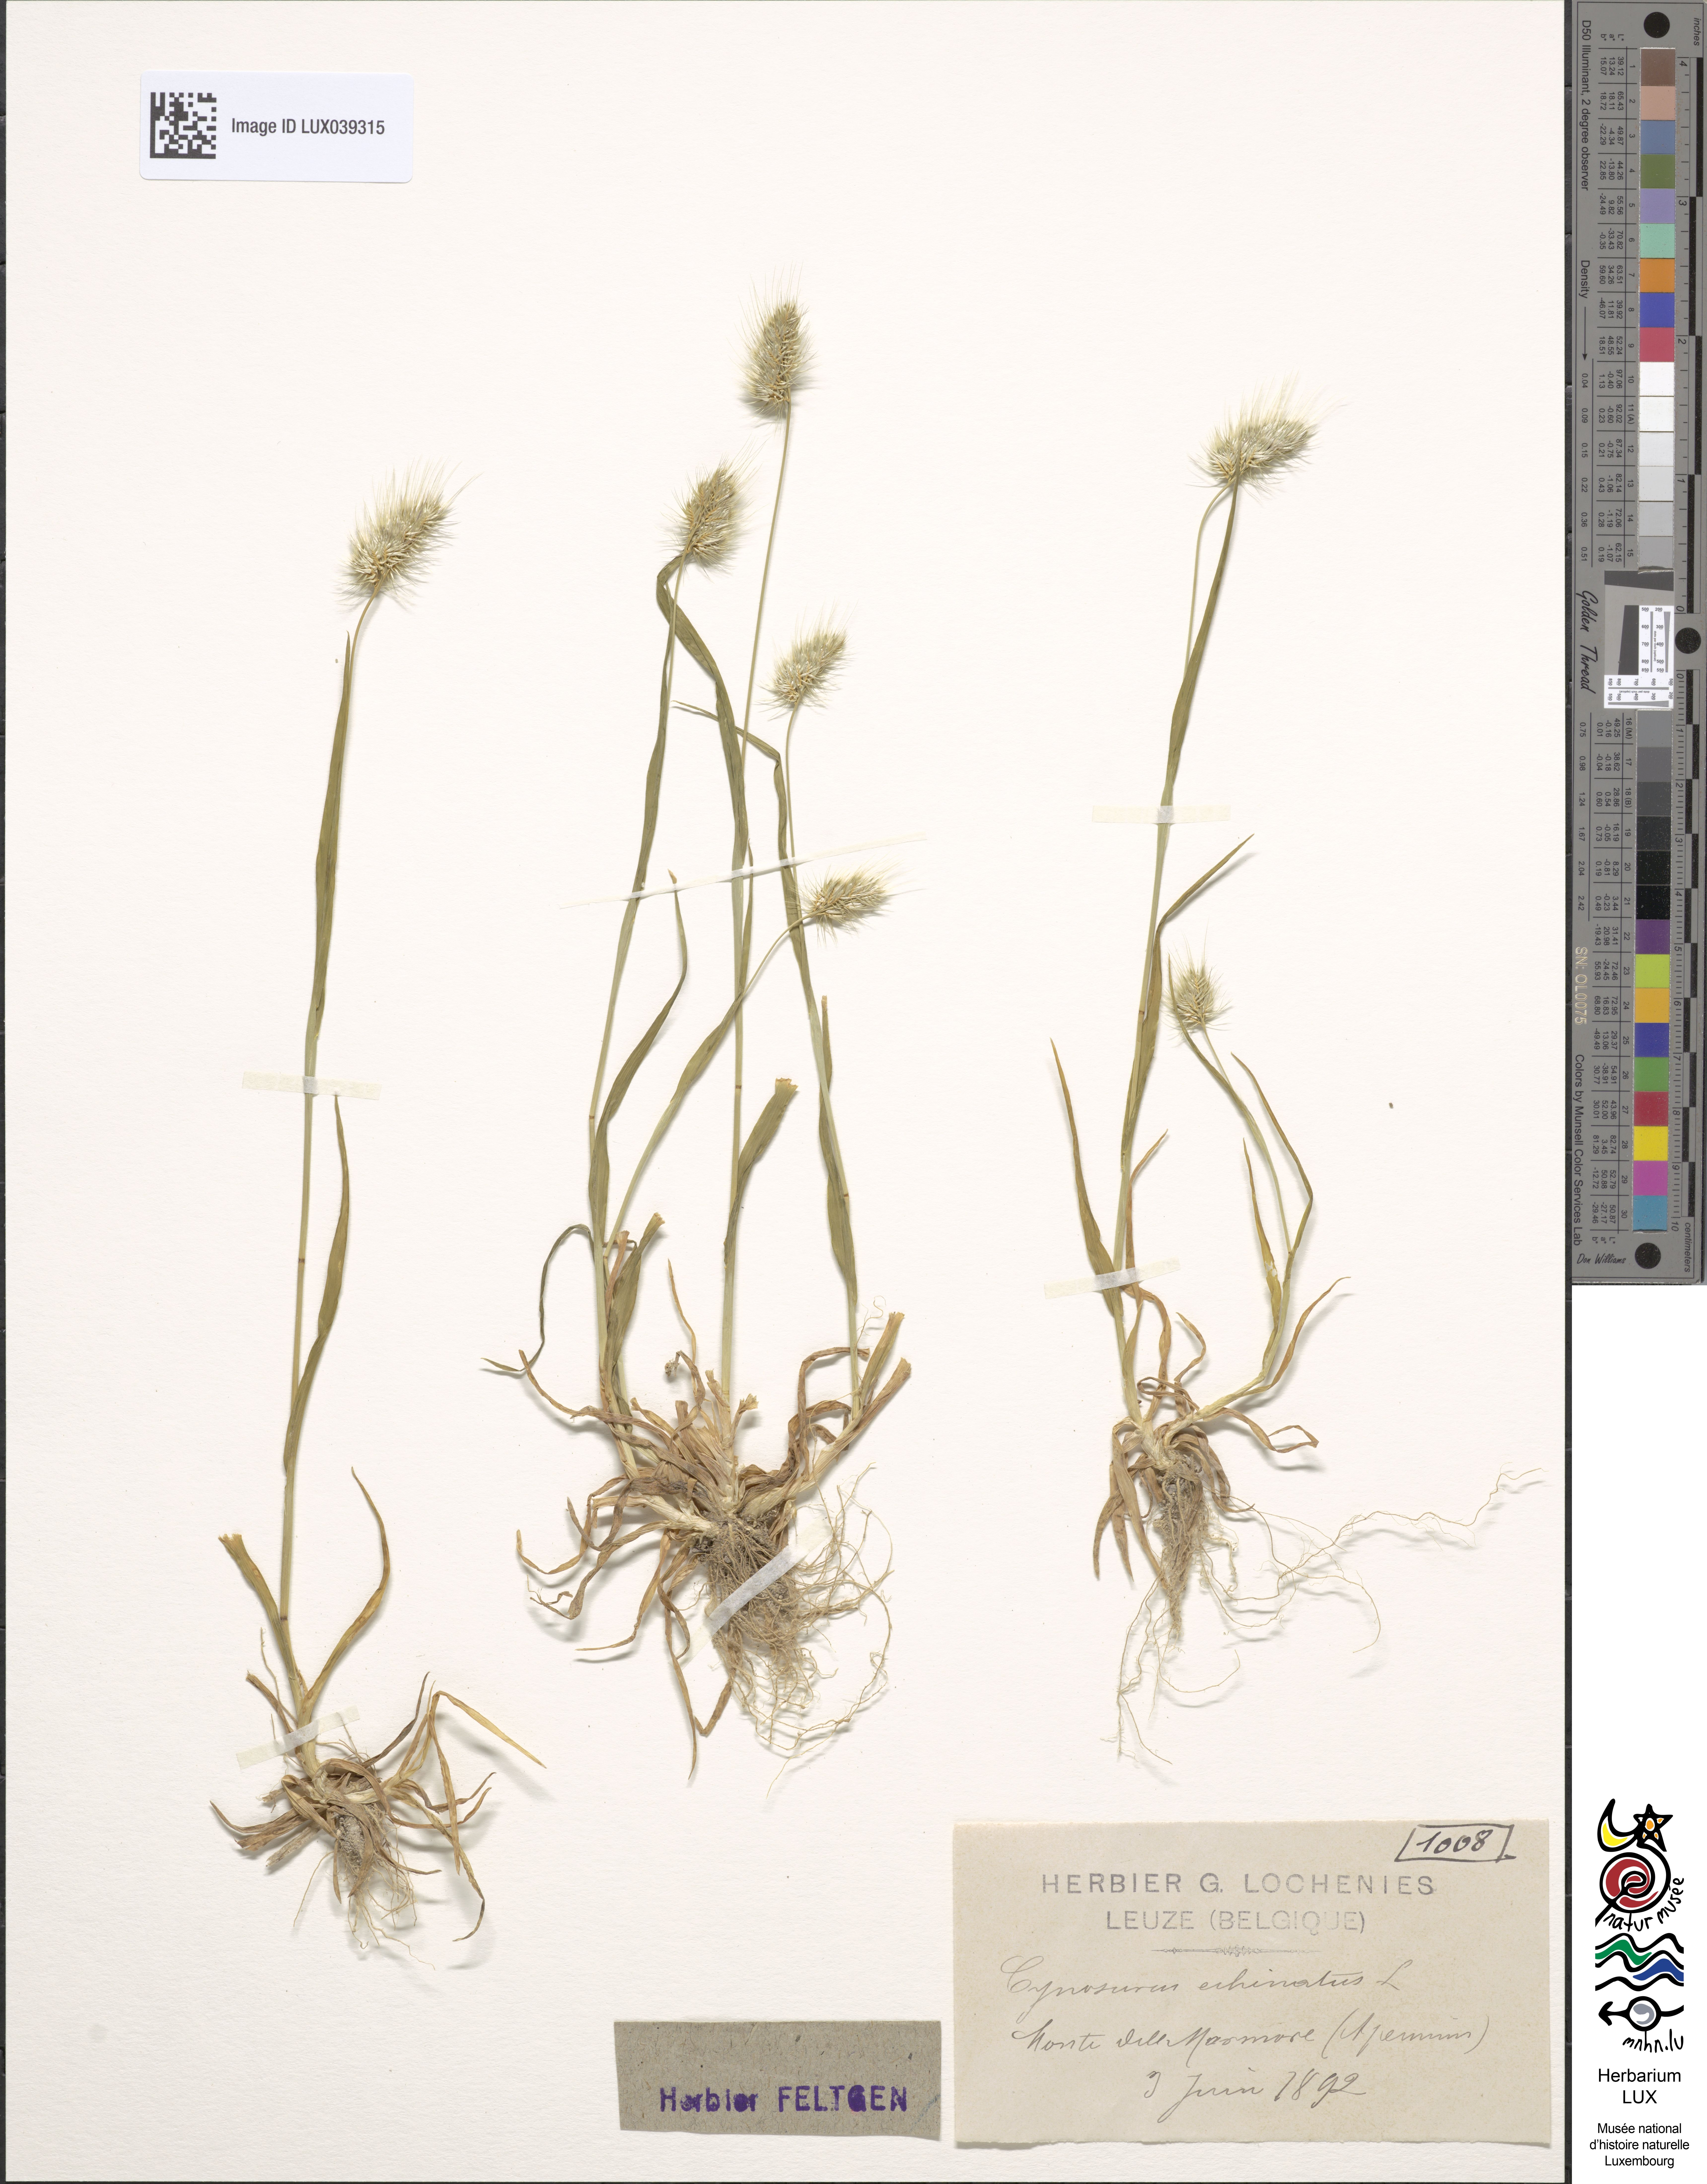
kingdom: Plantae
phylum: Tracheophyta
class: Liliopsida
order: Poales
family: Poaceae
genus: Cynosurus
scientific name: Cynosurus echinatus
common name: Rough dog's-tail
